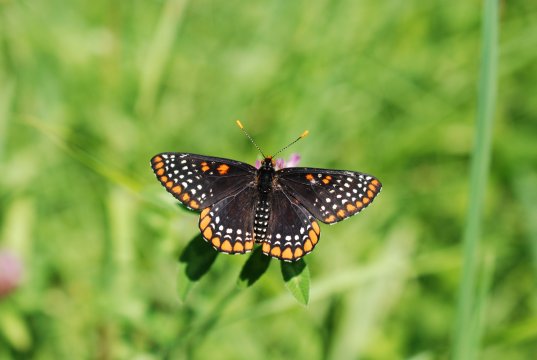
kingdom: Animalia
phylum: Arthropoda
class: Insecta
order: Lepidoptera
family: Nymphalidae
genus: Euphydryas
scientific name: Euphydryas phaeton
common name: Baltimore Checkerspot
